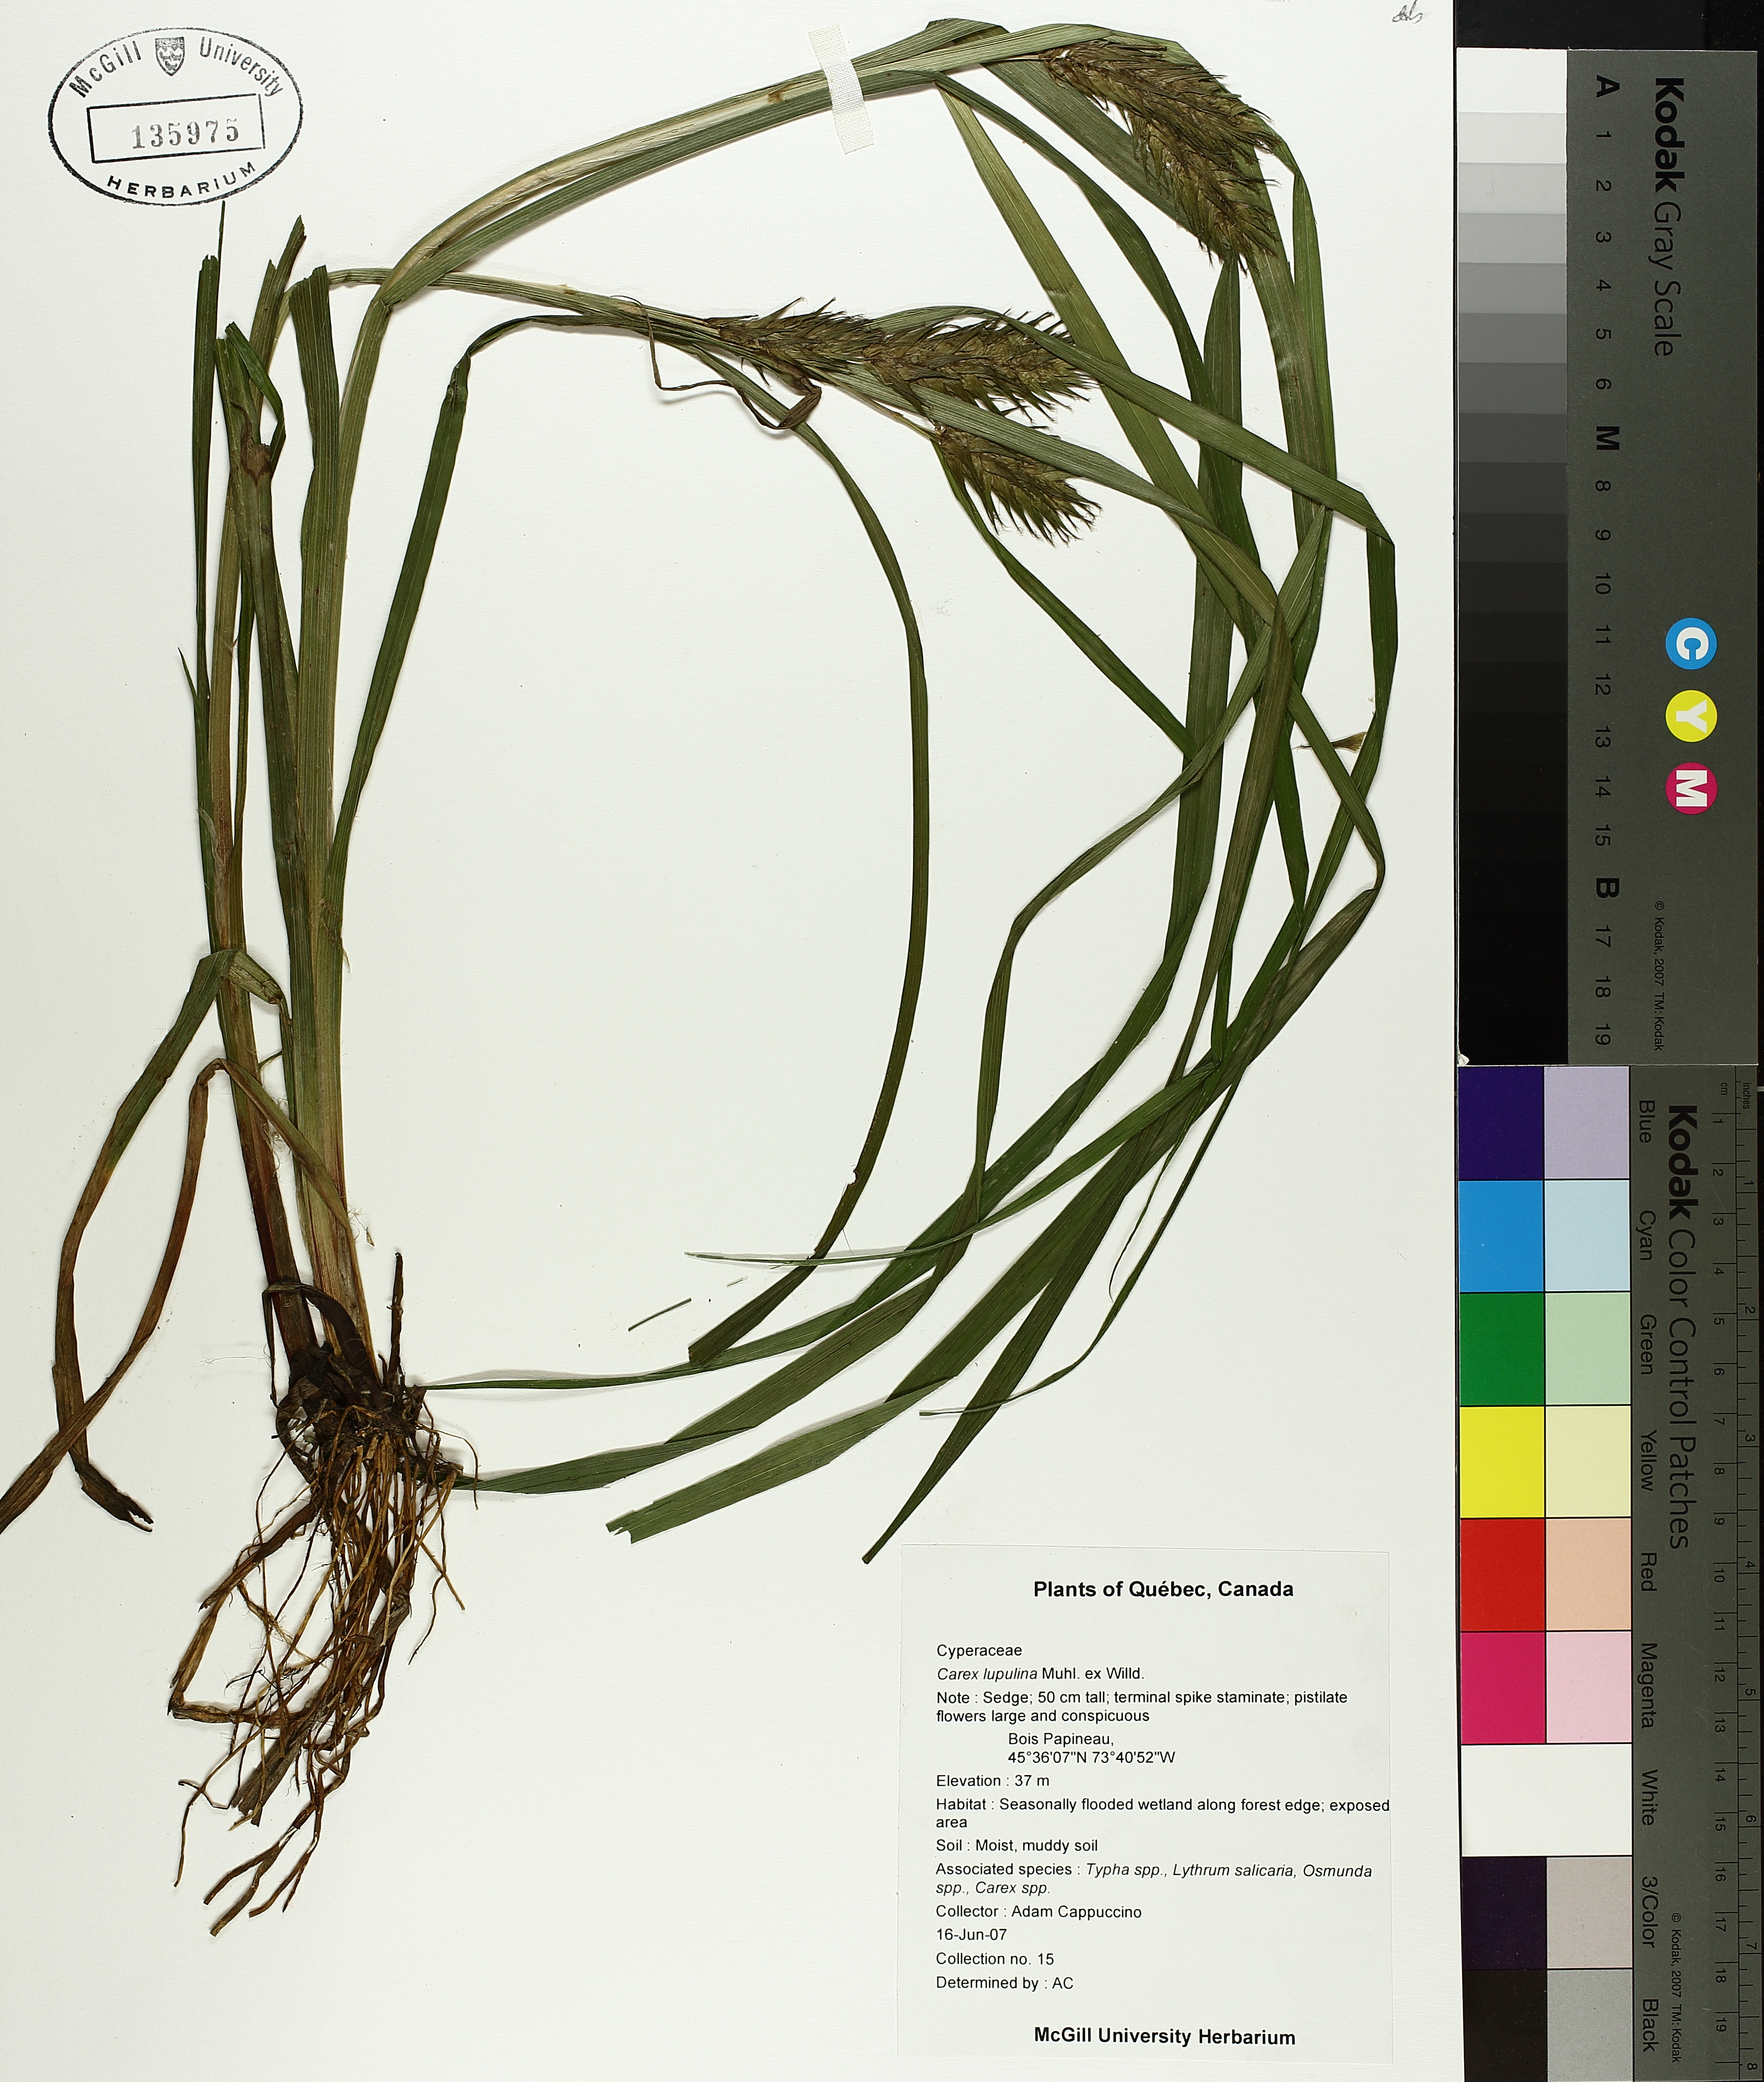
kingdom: Plantae
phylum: Tracheophyta
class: Liliopsida
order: Poales
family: Cyperaceae
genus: Carex
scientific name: Carex lupulina
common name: Hop sedge
